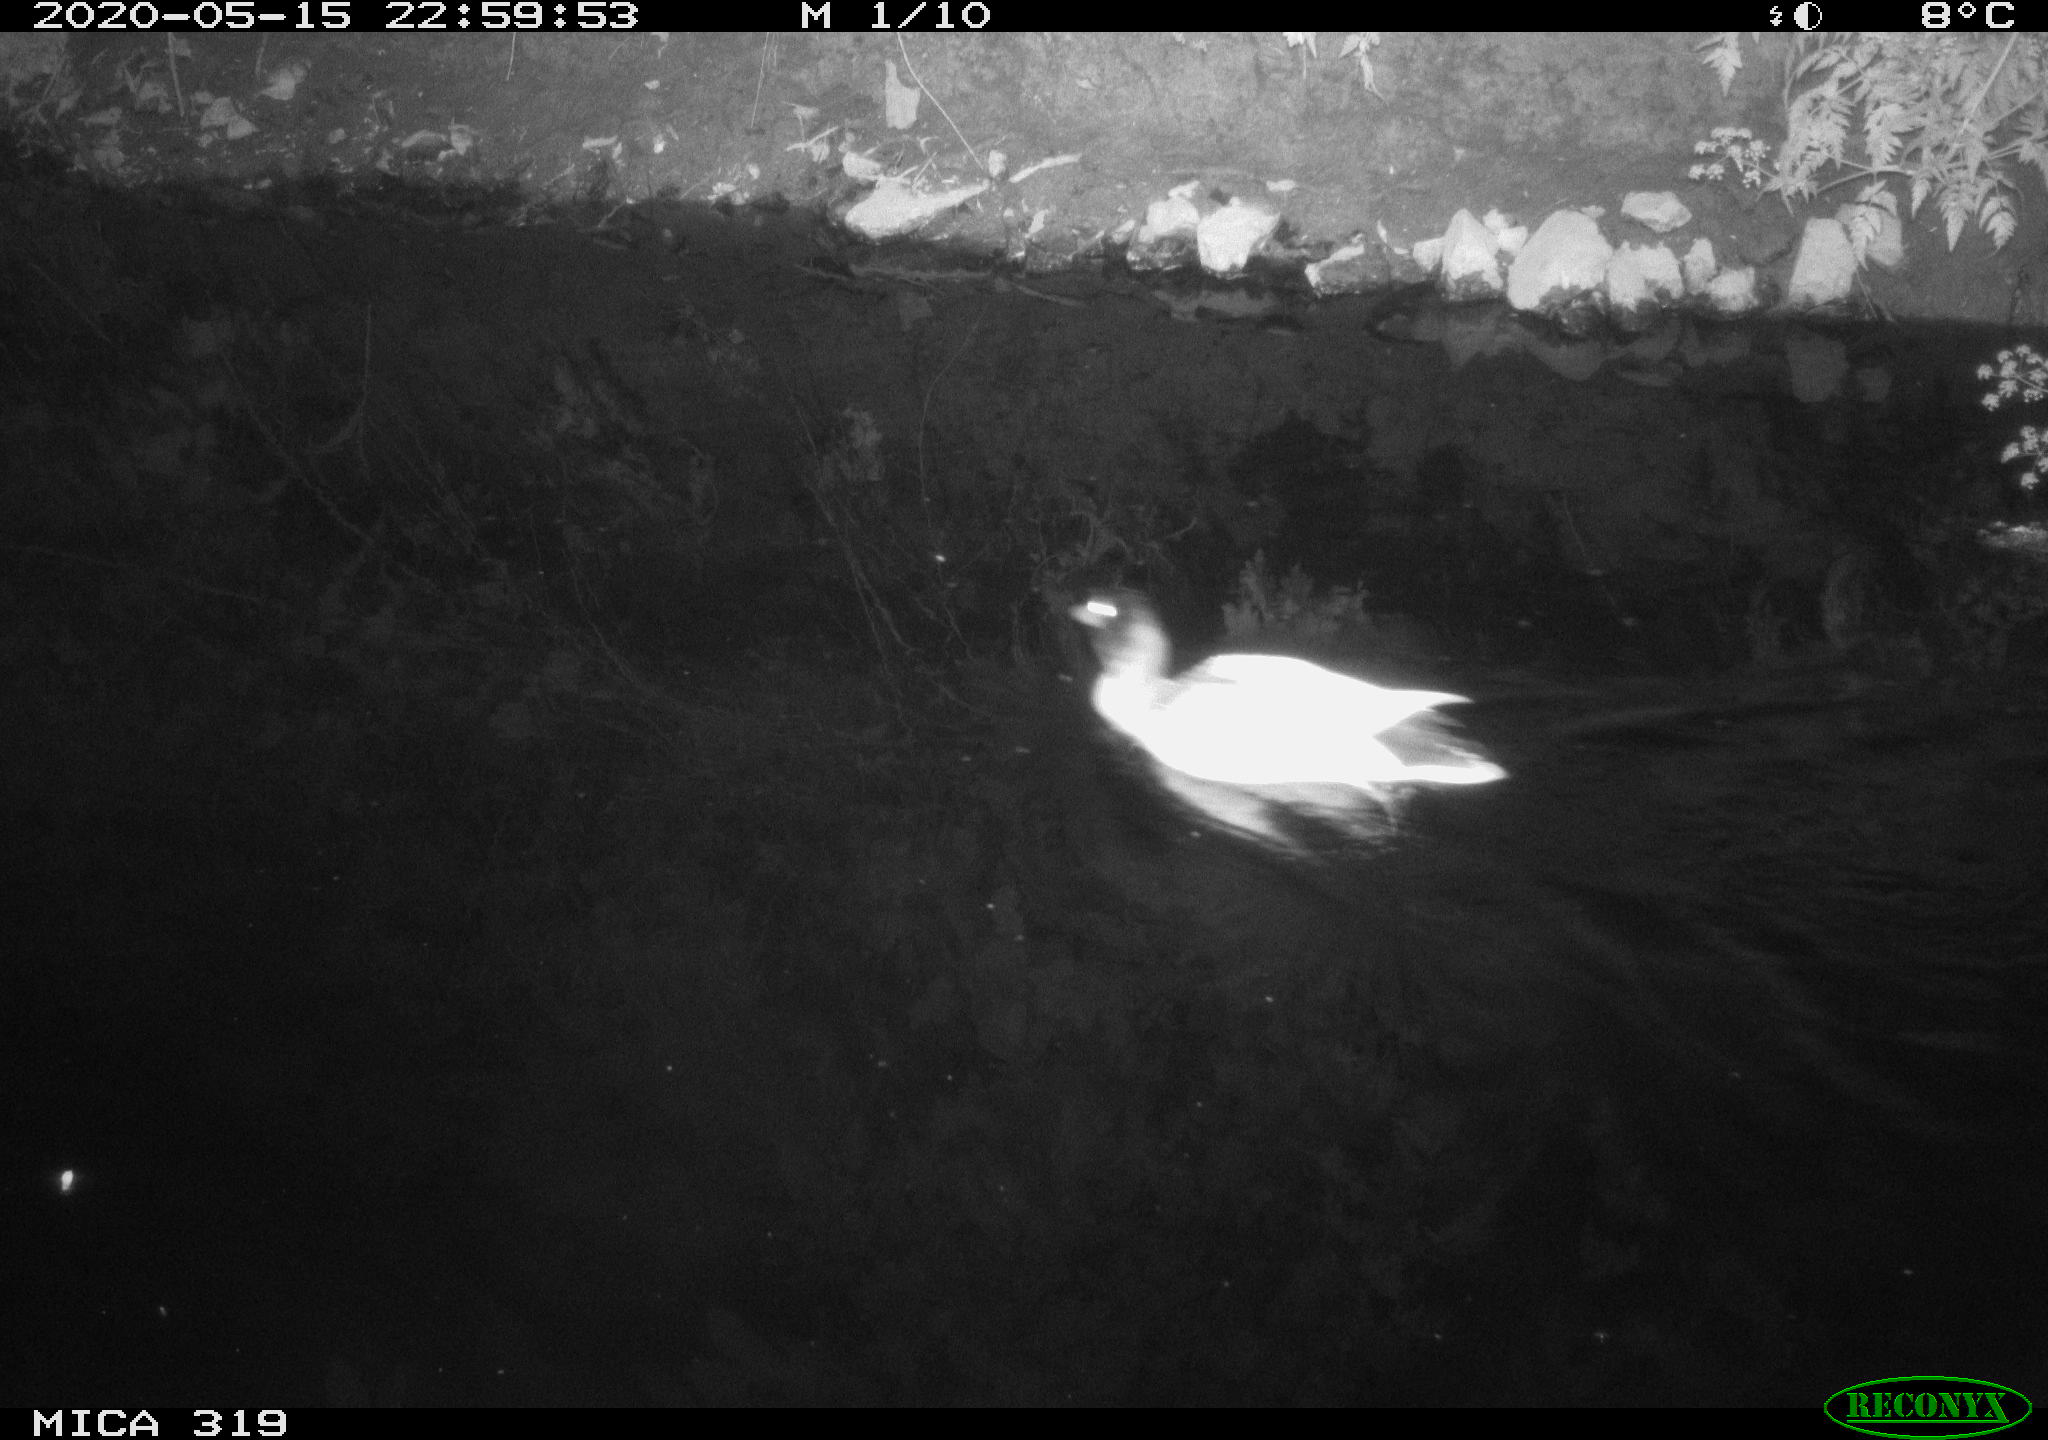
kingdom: Animalia
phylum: Chordata
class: Aves
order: Anseriformes
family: Anatidae
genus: Anas
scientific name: Anas platyrhynchos
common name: Mallard
